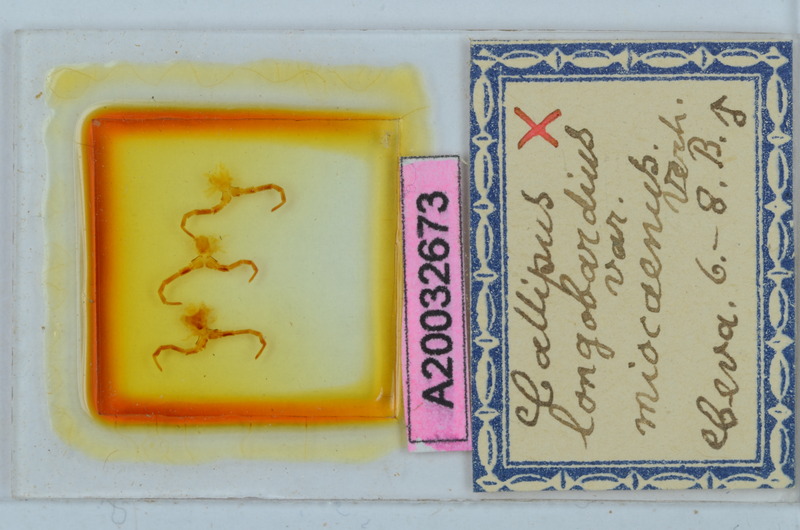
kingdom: Animalia
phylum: Arthropoda
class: Diplopoda
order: Callipodida
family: Callipodidae
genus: Callipus
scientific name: Callipus foetidissimus
